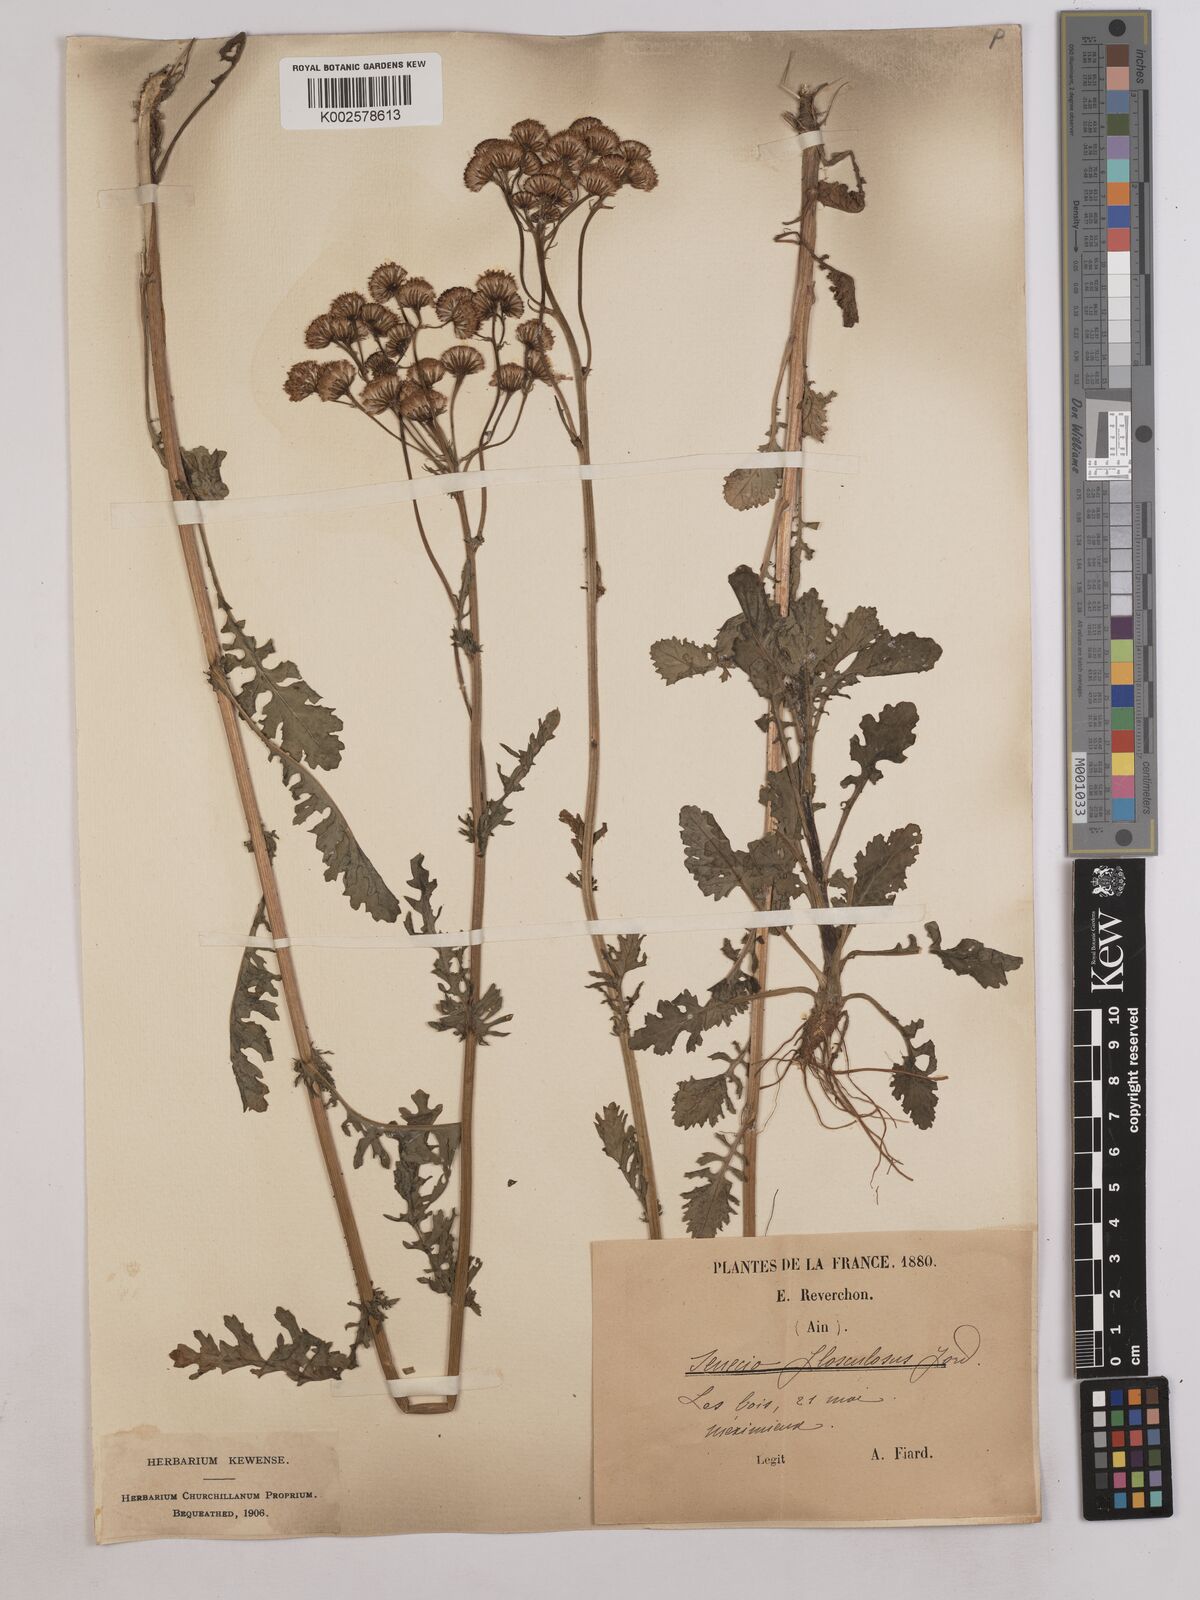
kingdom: Plantae
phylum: Tracheophyta
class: Magnoliopsida
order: Asterales
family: Asteraceae
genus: Jacobaea
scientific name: Jacobaea vulgaris
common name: Stinking willie
